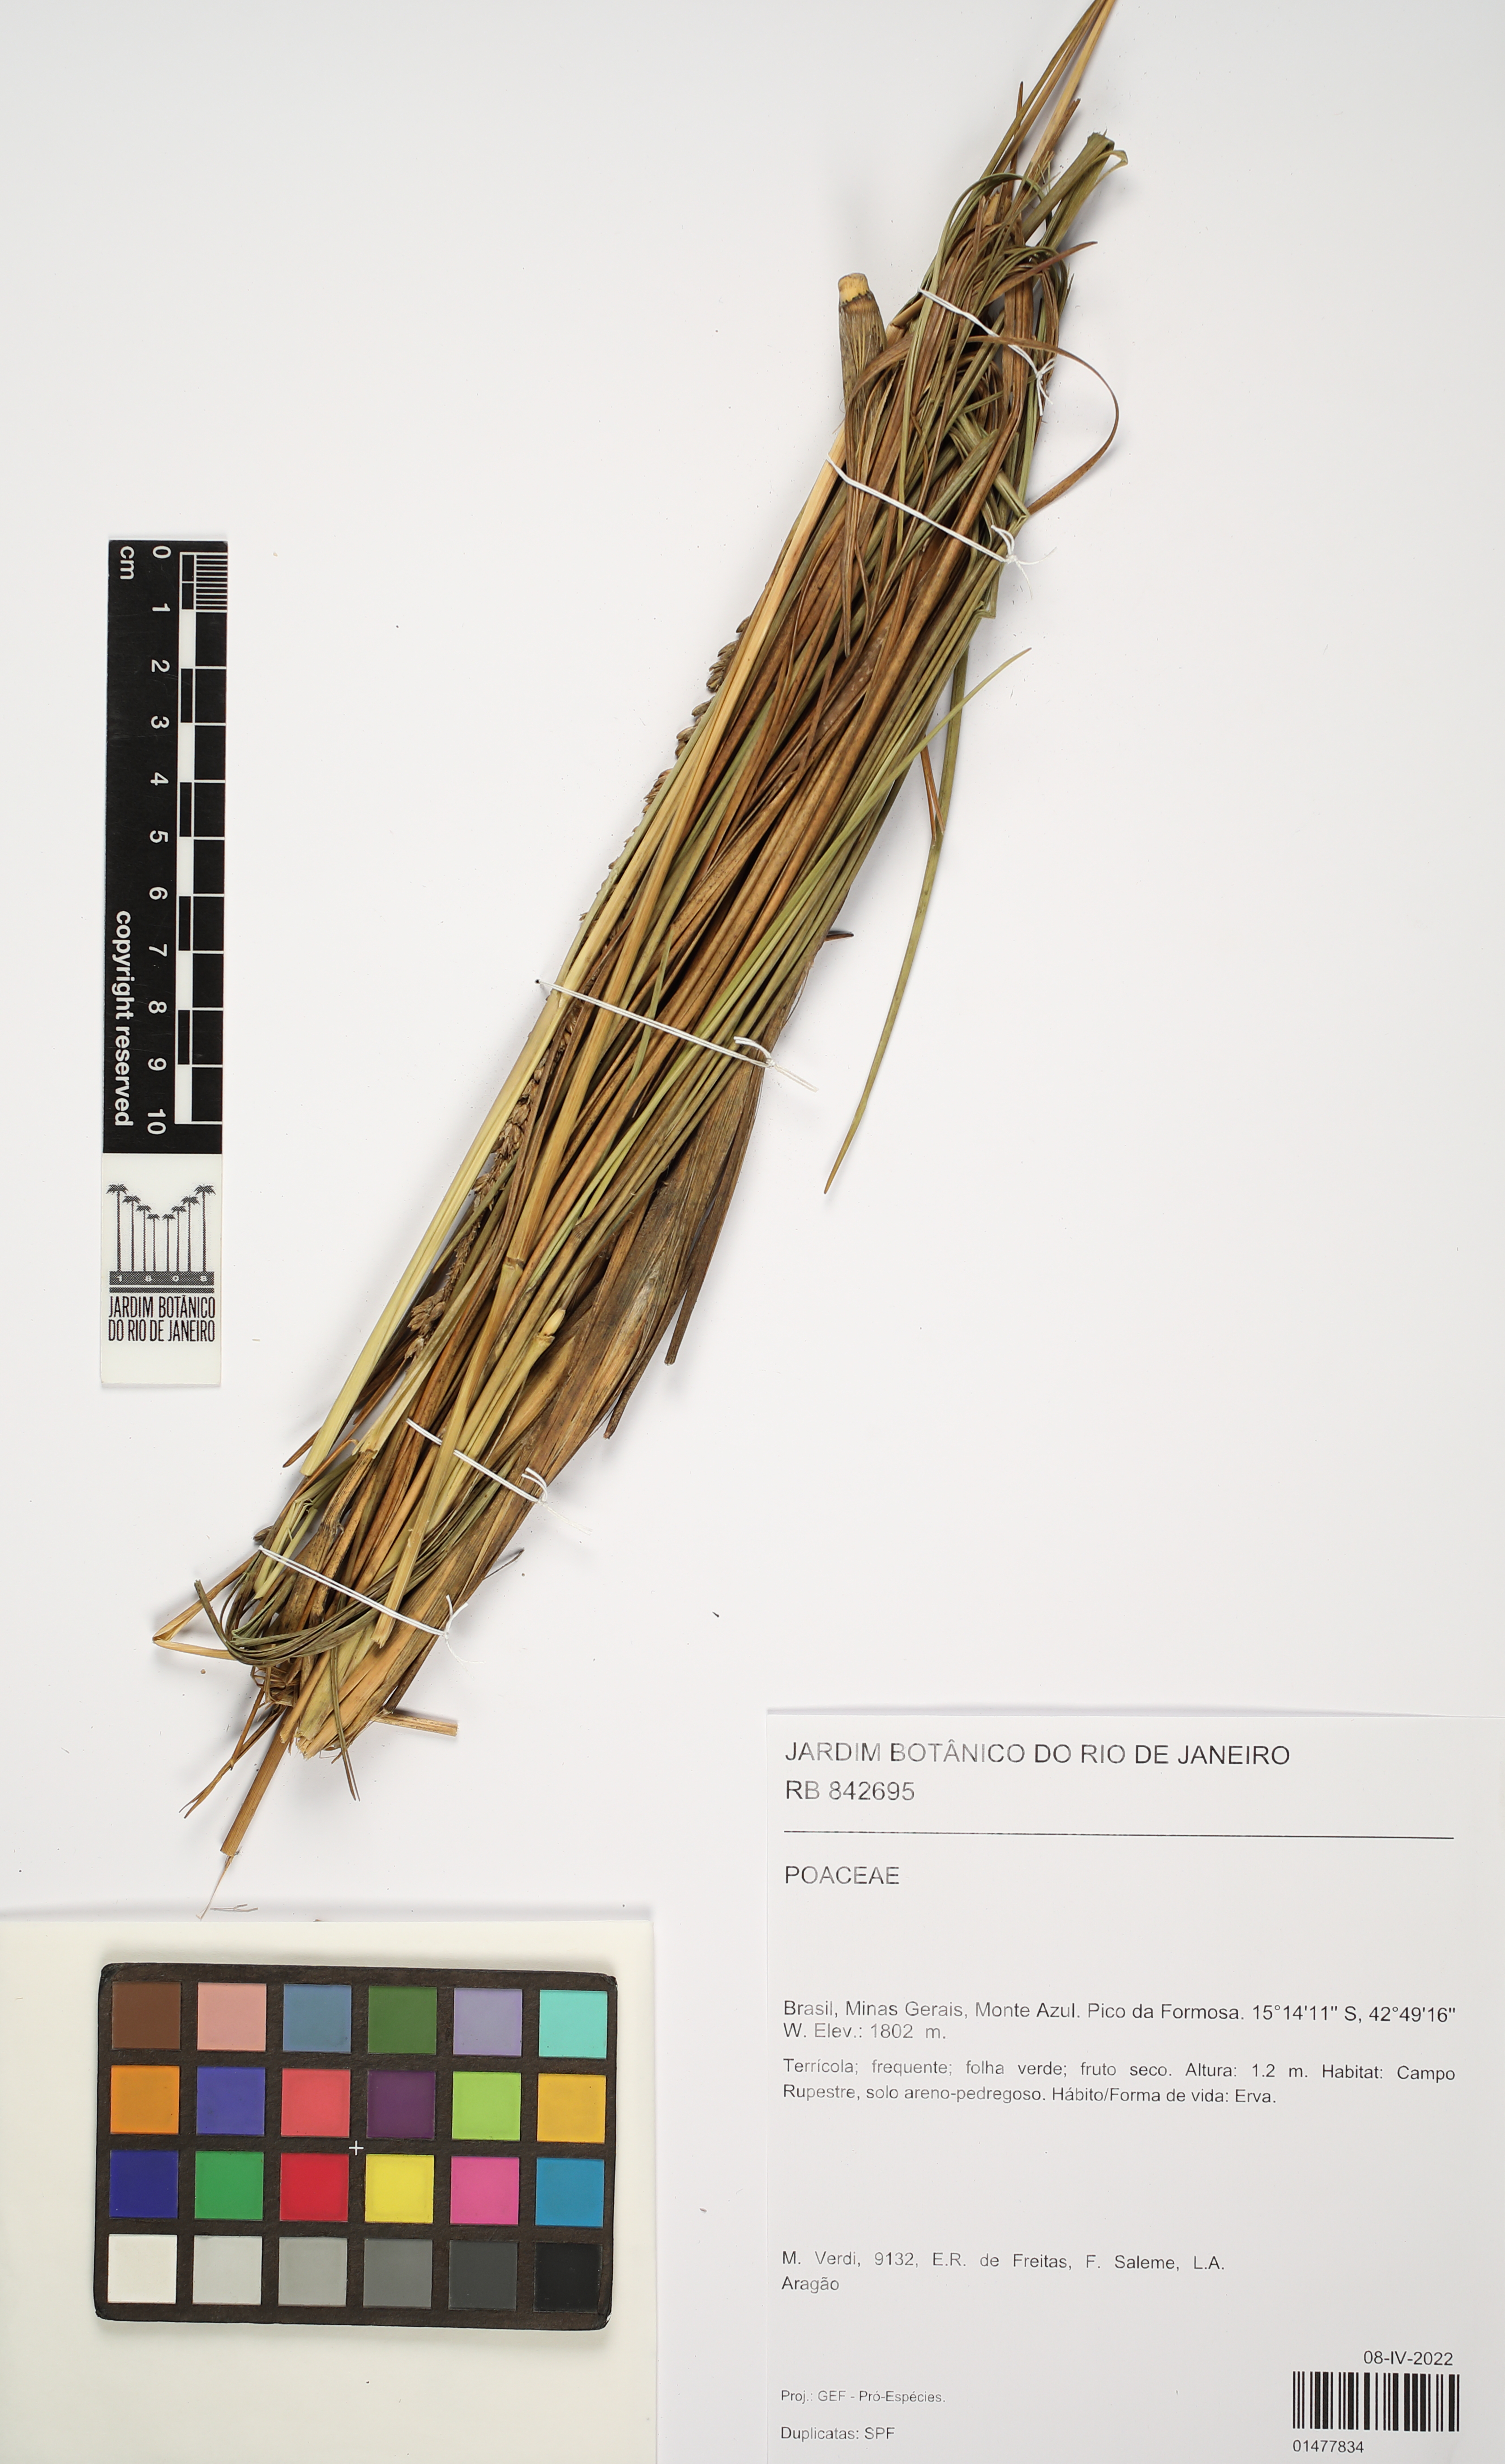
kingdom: Plantae
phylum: Tracheophyta
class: Liliopsida
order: Poales
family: Poaceae
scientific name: Poaceae
